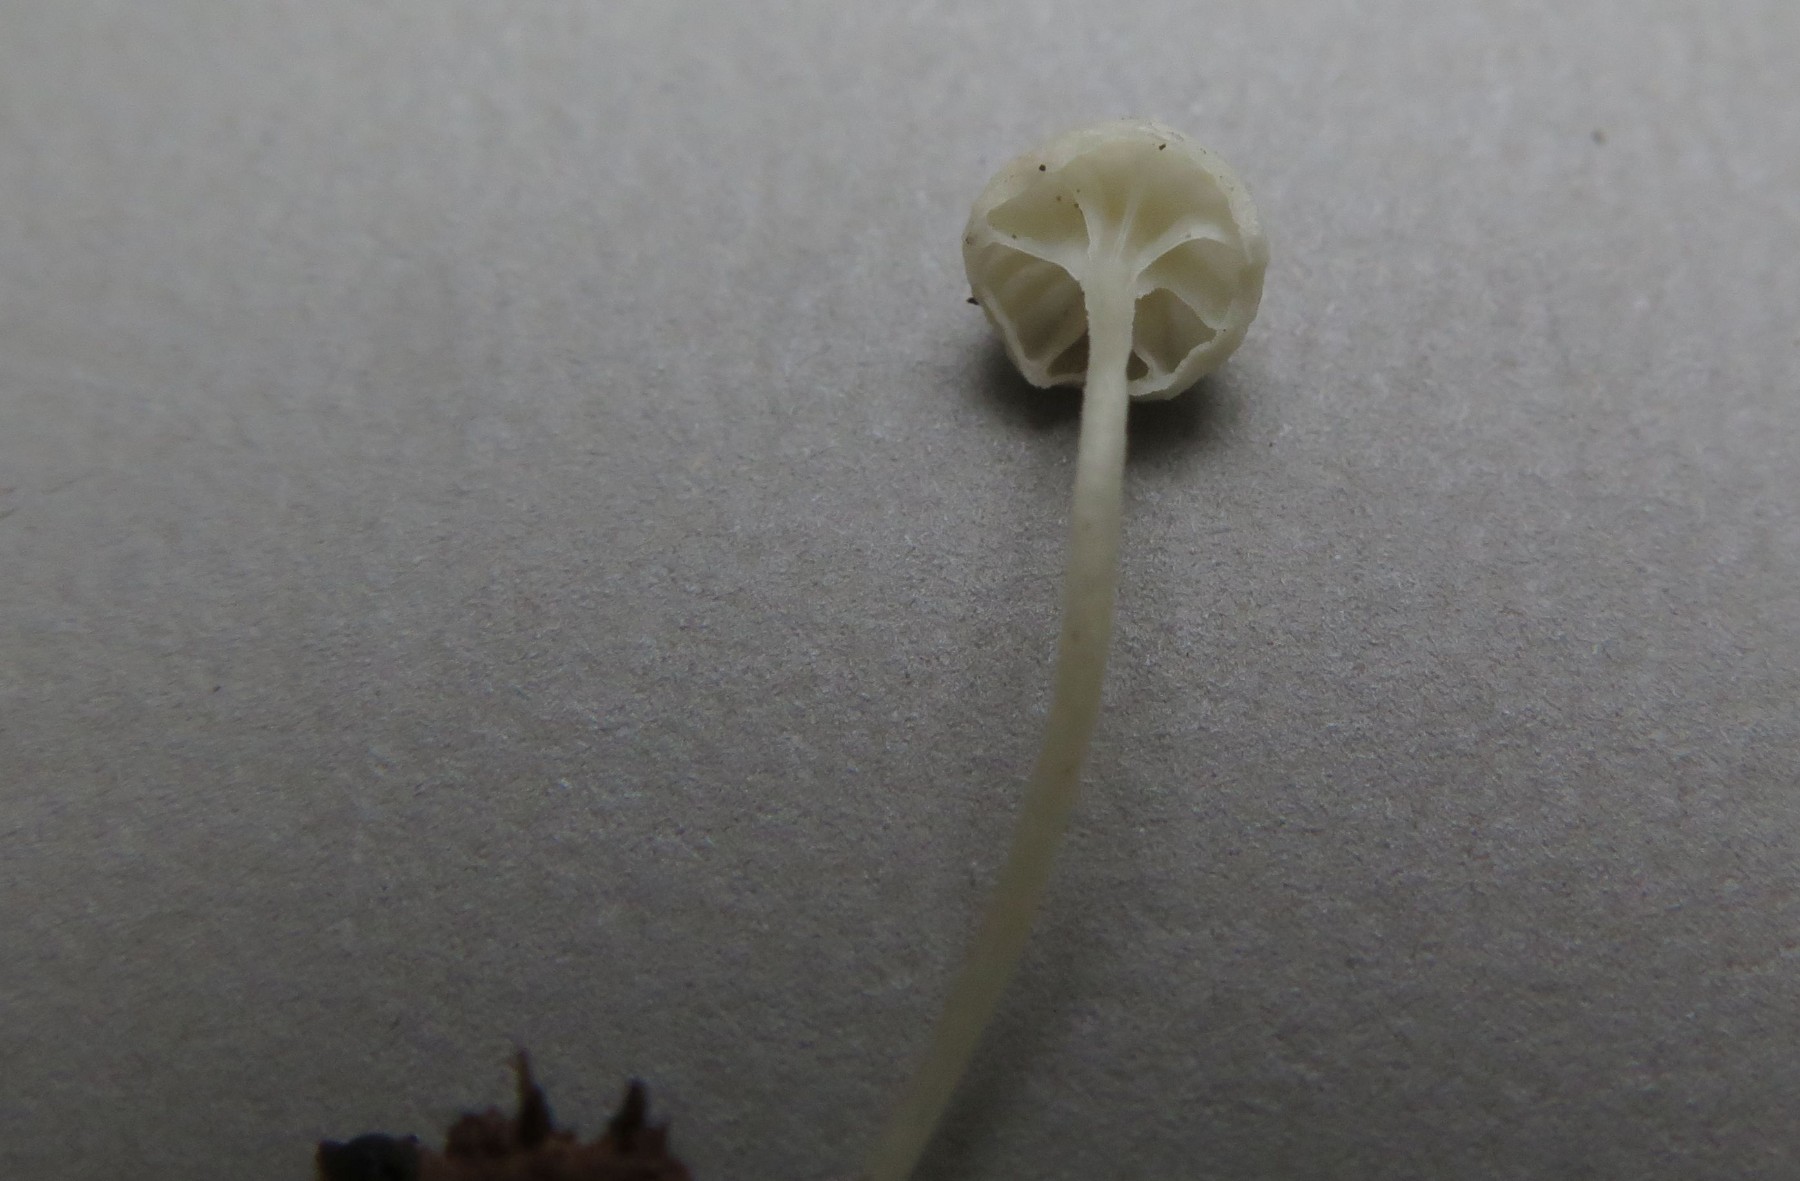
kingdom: Fungi
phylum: Basidiomycota
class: Agaricomycetes
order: Agaricales
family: Porotheleaceae
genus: Phloeomana
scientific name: Phloeomana speirea
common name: kvist-huesvamp
